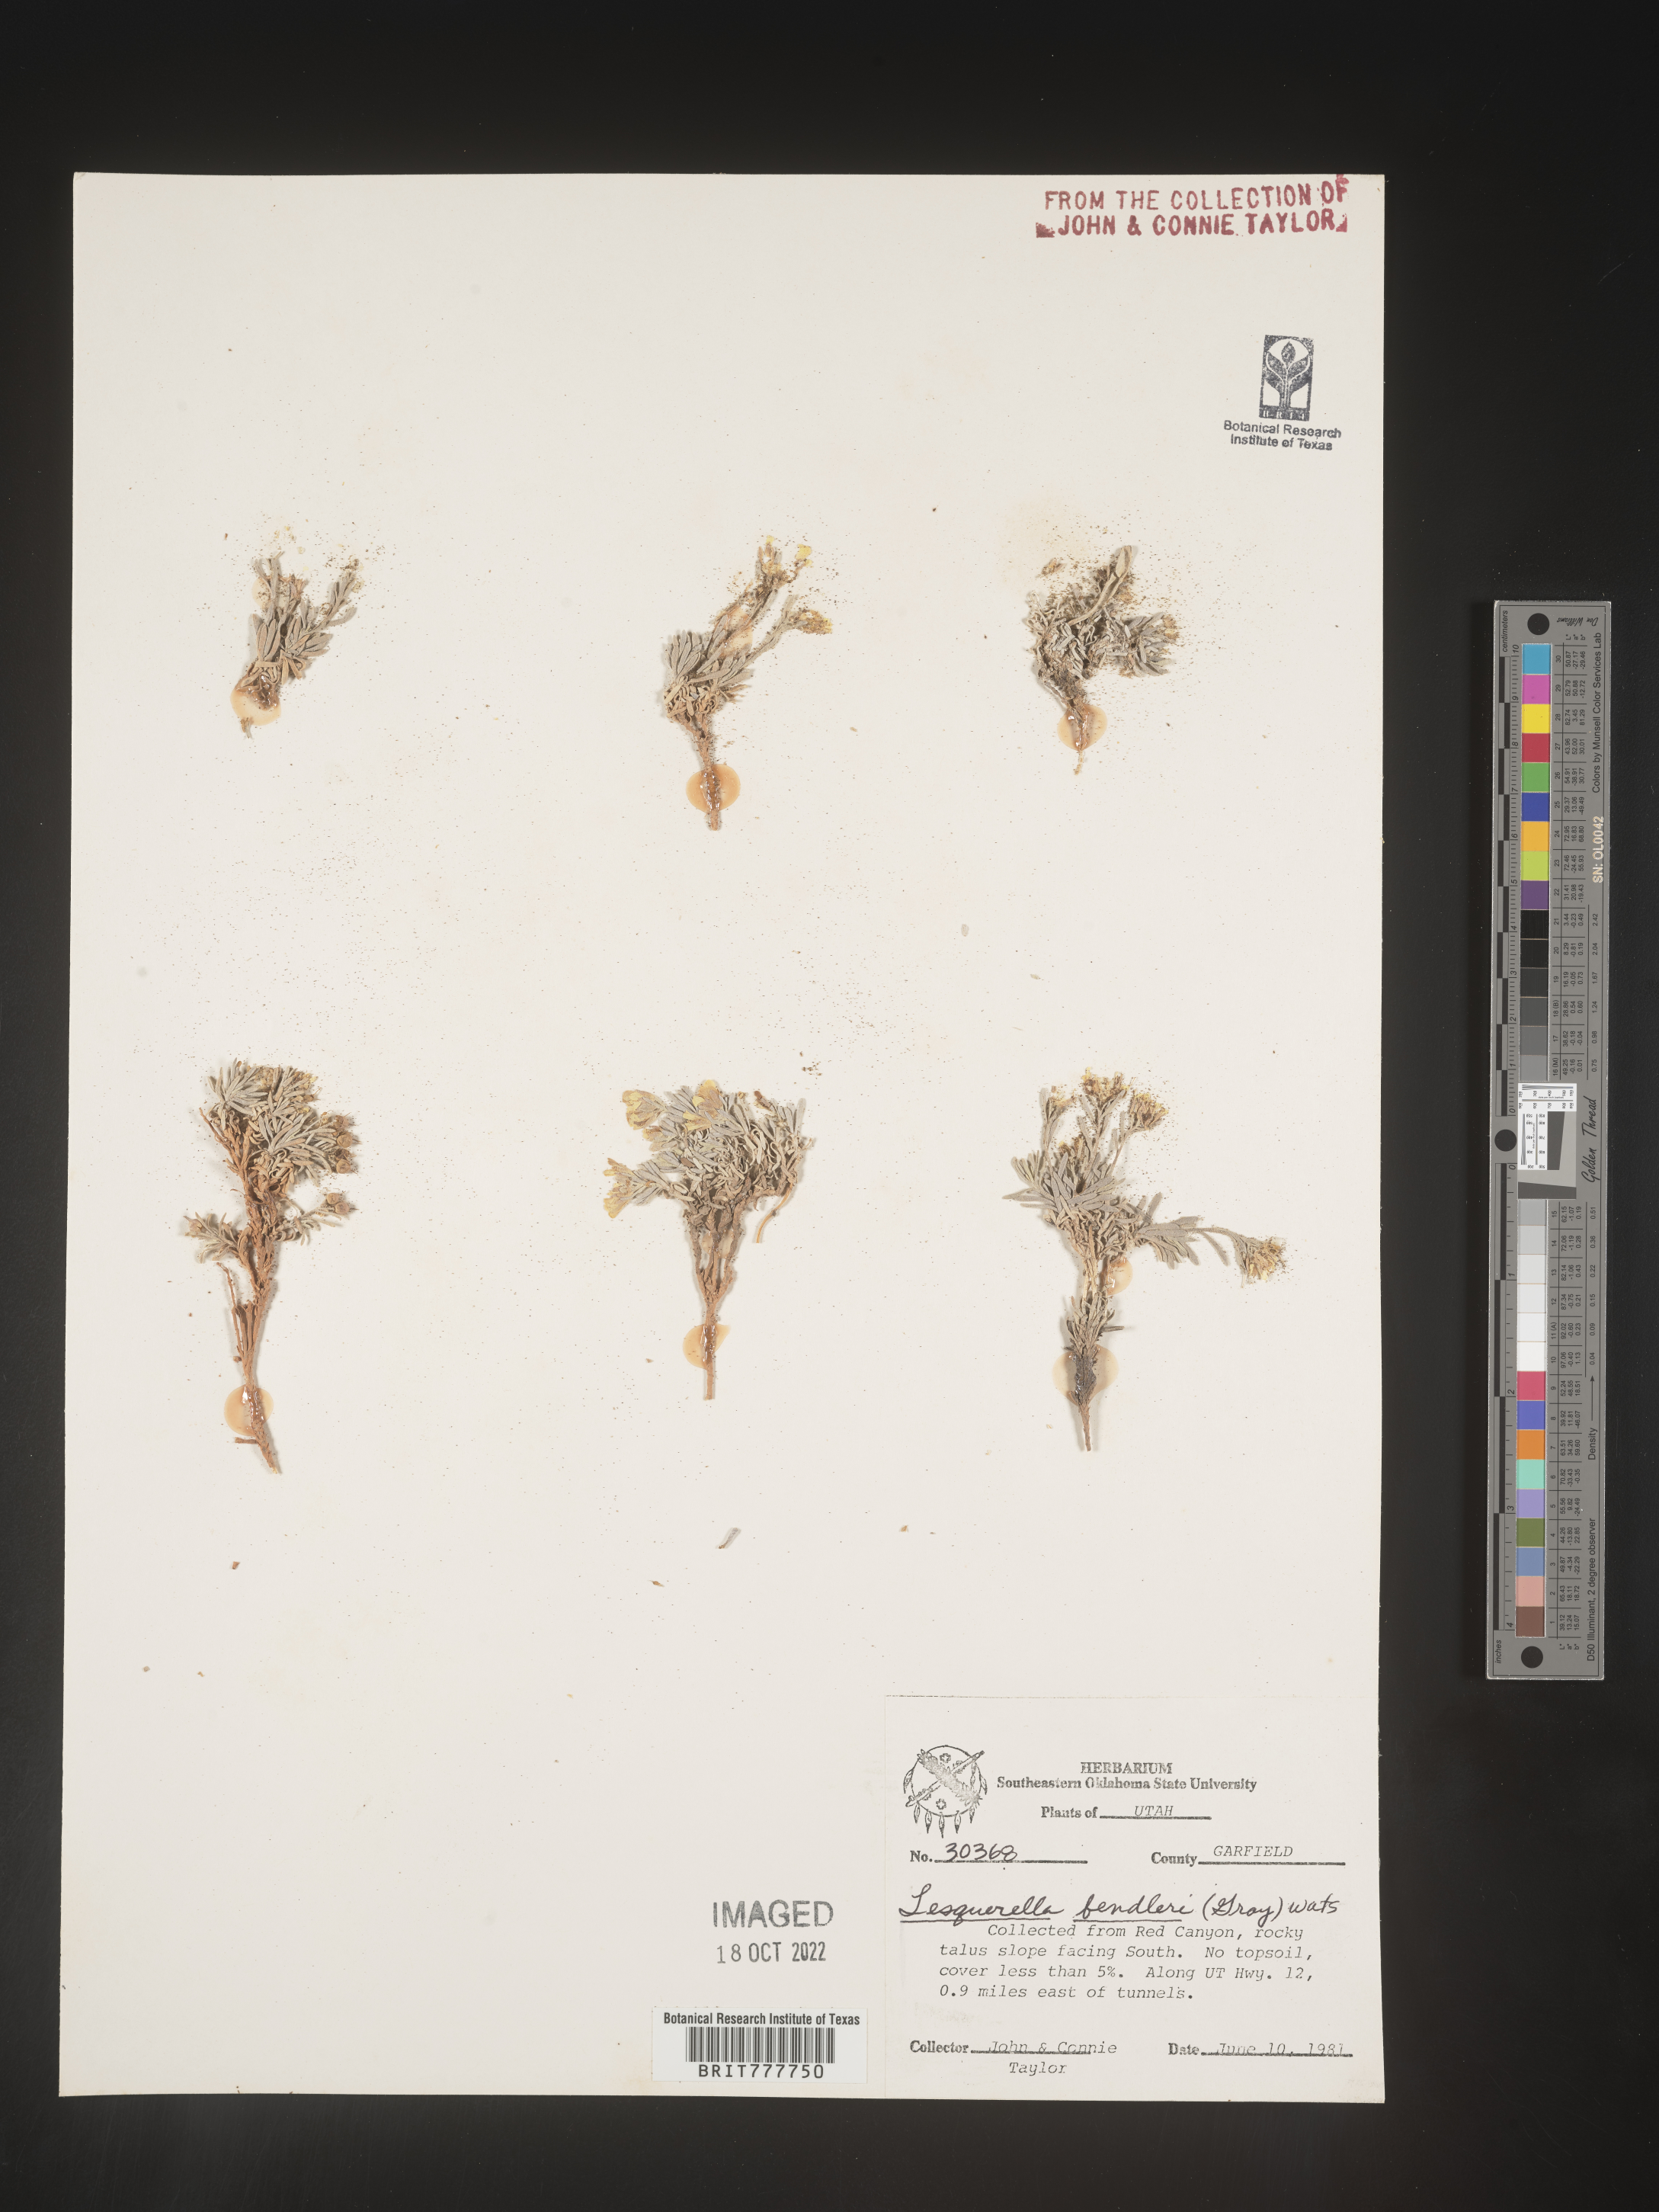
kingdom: Plantae
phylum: Tracheophyta
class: Magnoliopsida
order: Brassicales
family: Brassicaceae
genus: Physaria
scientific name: Physaria fendleri
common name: Fendler's bladderpod
